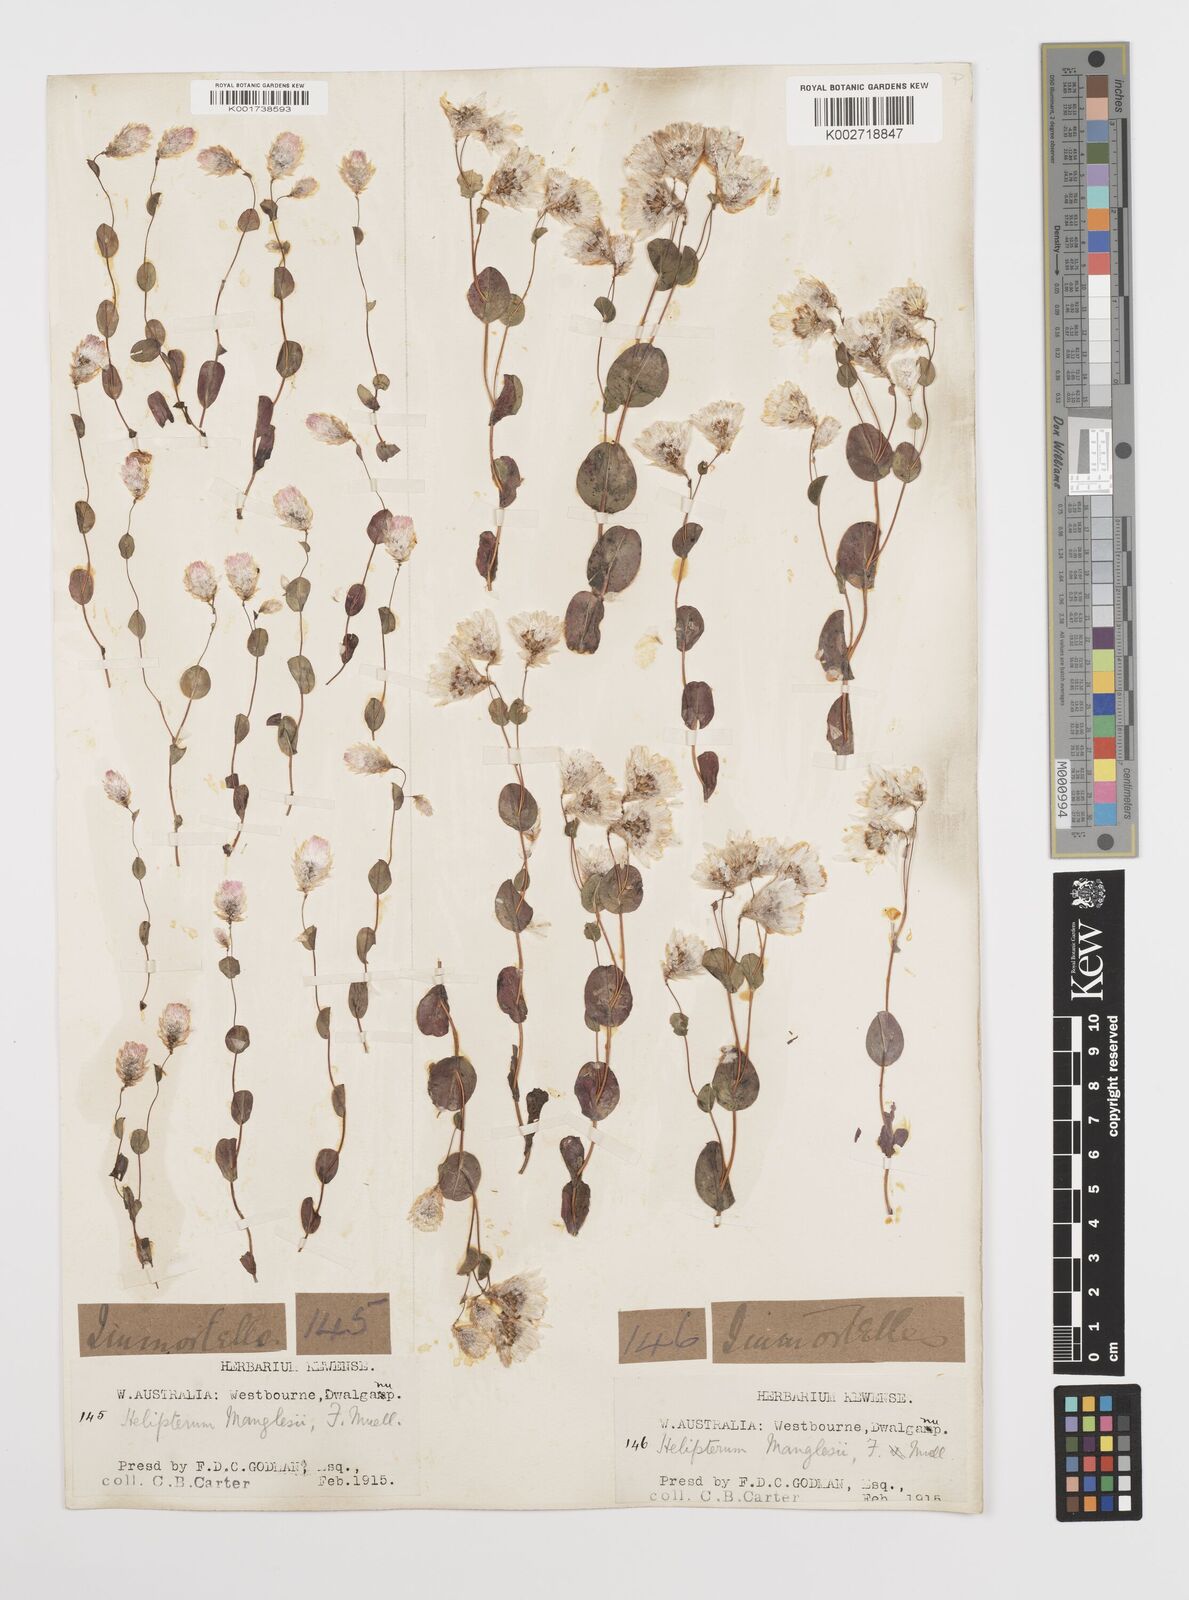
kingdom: Plantae
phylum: Tracheophyta
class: Magnoliopsida
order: Asterales
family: Asteraceae
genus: Rhodanthe
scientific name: Rhodanthe manglesii
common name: Pink sunray
